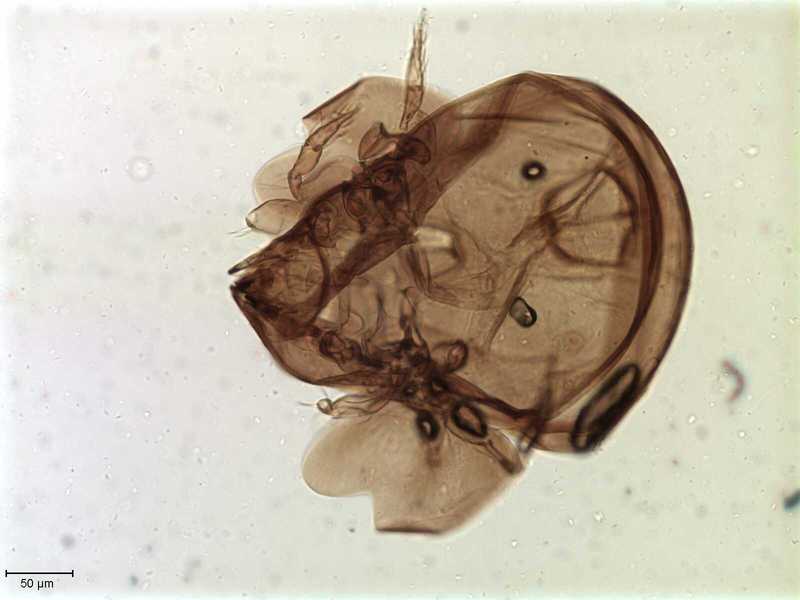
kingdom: Animalia
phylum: Arthropoda
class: Arachnida
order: Sarcoptiformes
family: Galumnidae
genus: Allogalumna
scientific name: Allogalumna exigua
